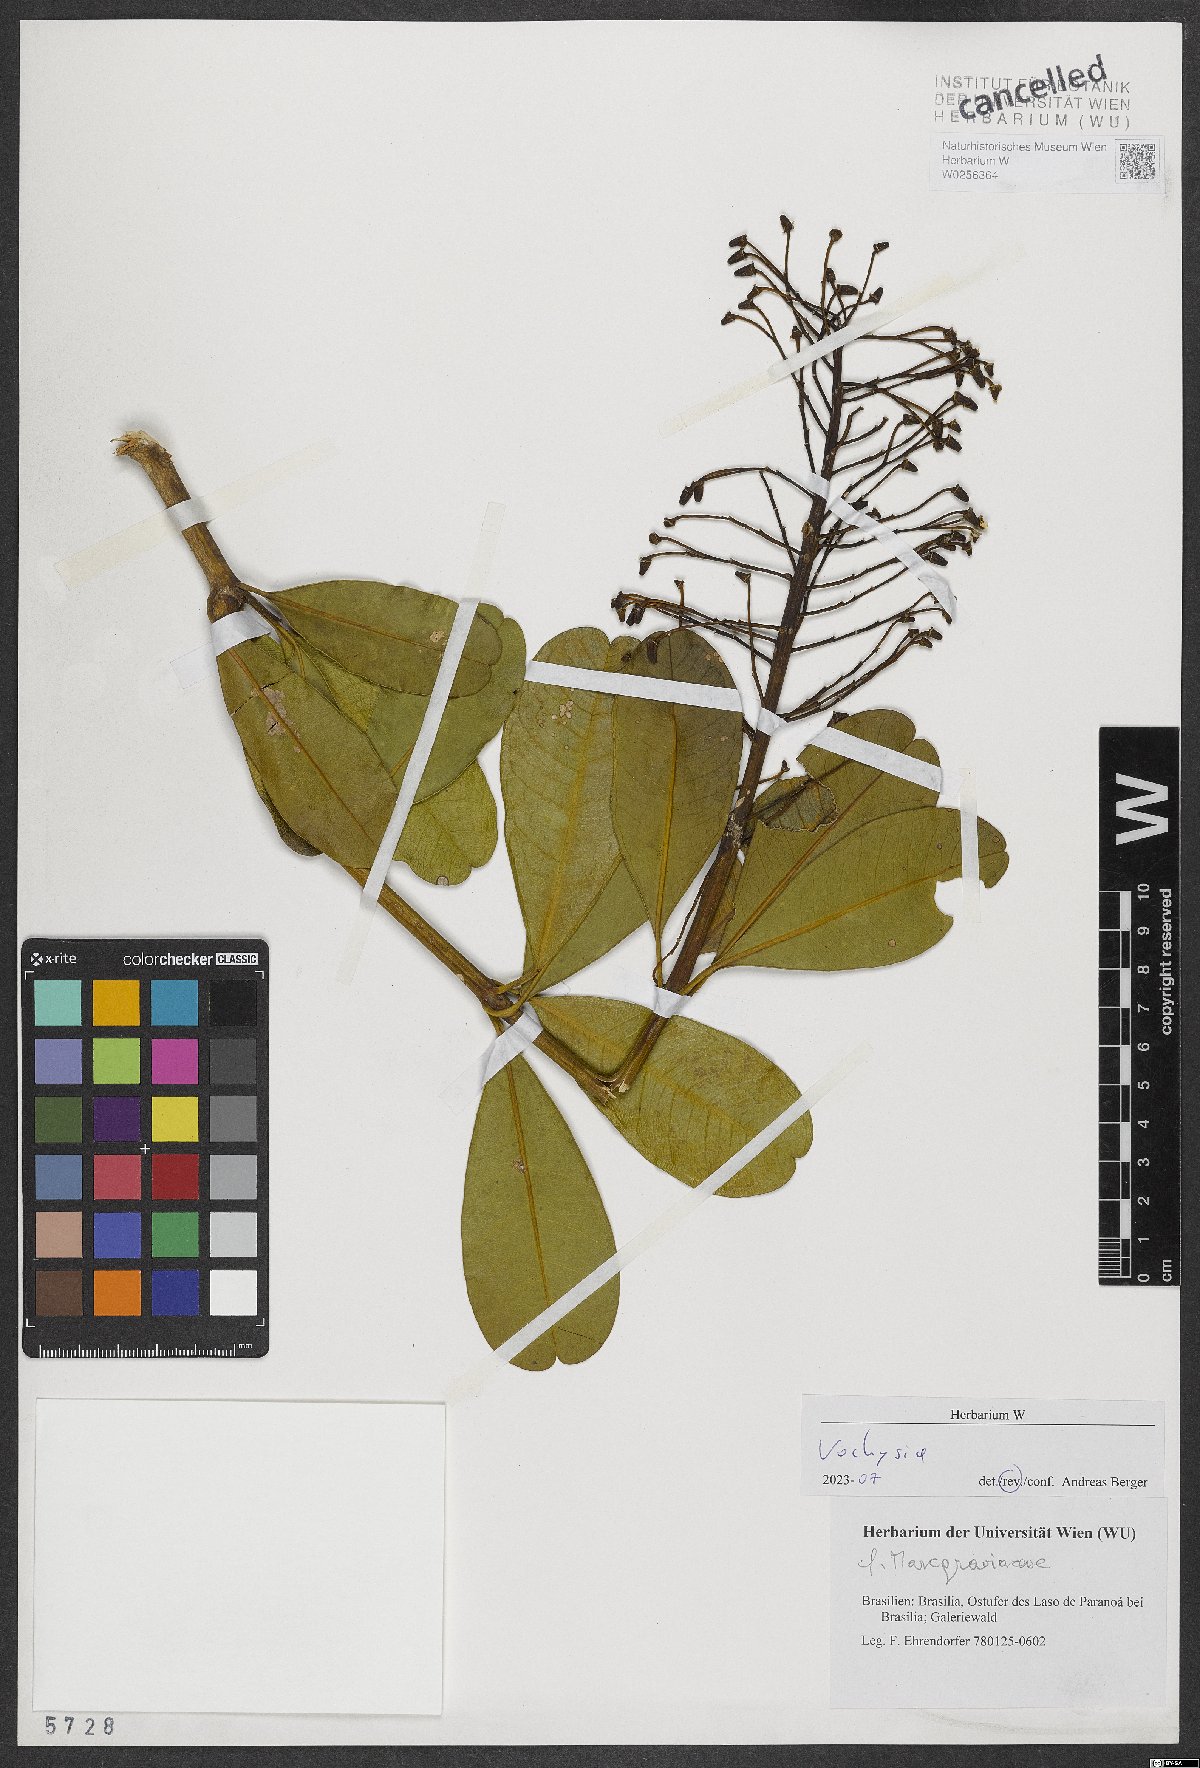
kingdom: Plantae
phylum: Tracheophyta
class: Magnoliopsida
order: Myrtales
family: Vochysiaceae
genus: Vochysia
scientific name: Vochysia
